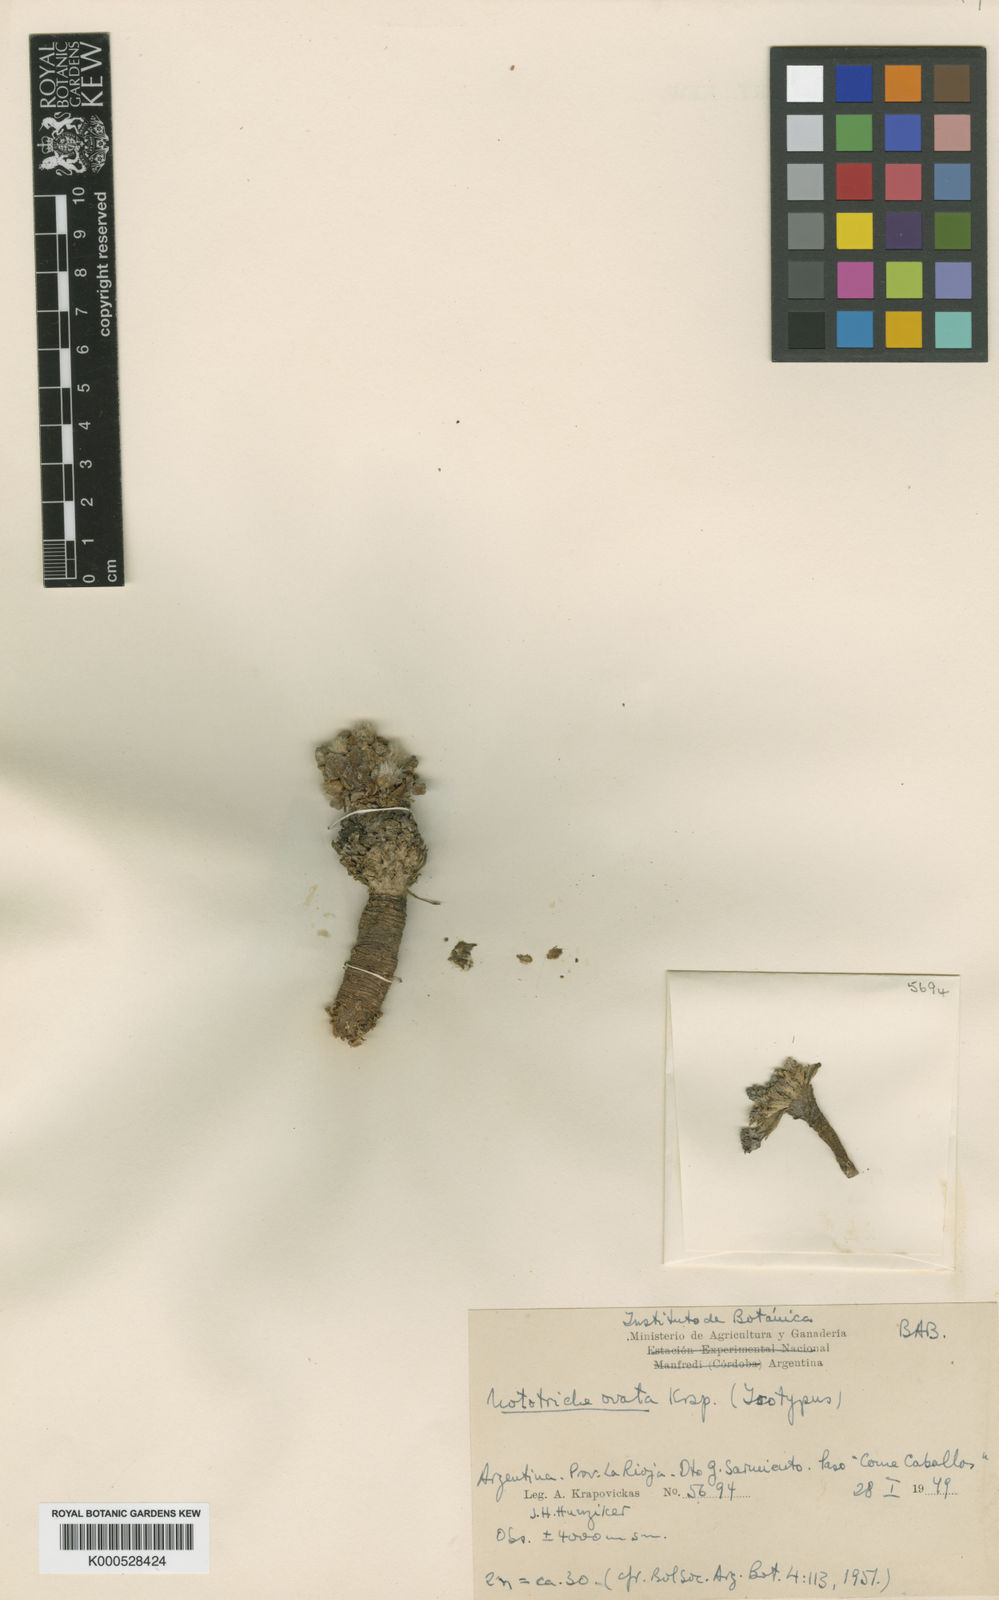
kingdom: Plantae
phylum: Tracheophyta
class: Magnoliopsida
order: Malvales
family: Malvaceae
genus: Nototriche
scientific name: Nototriche ovata
